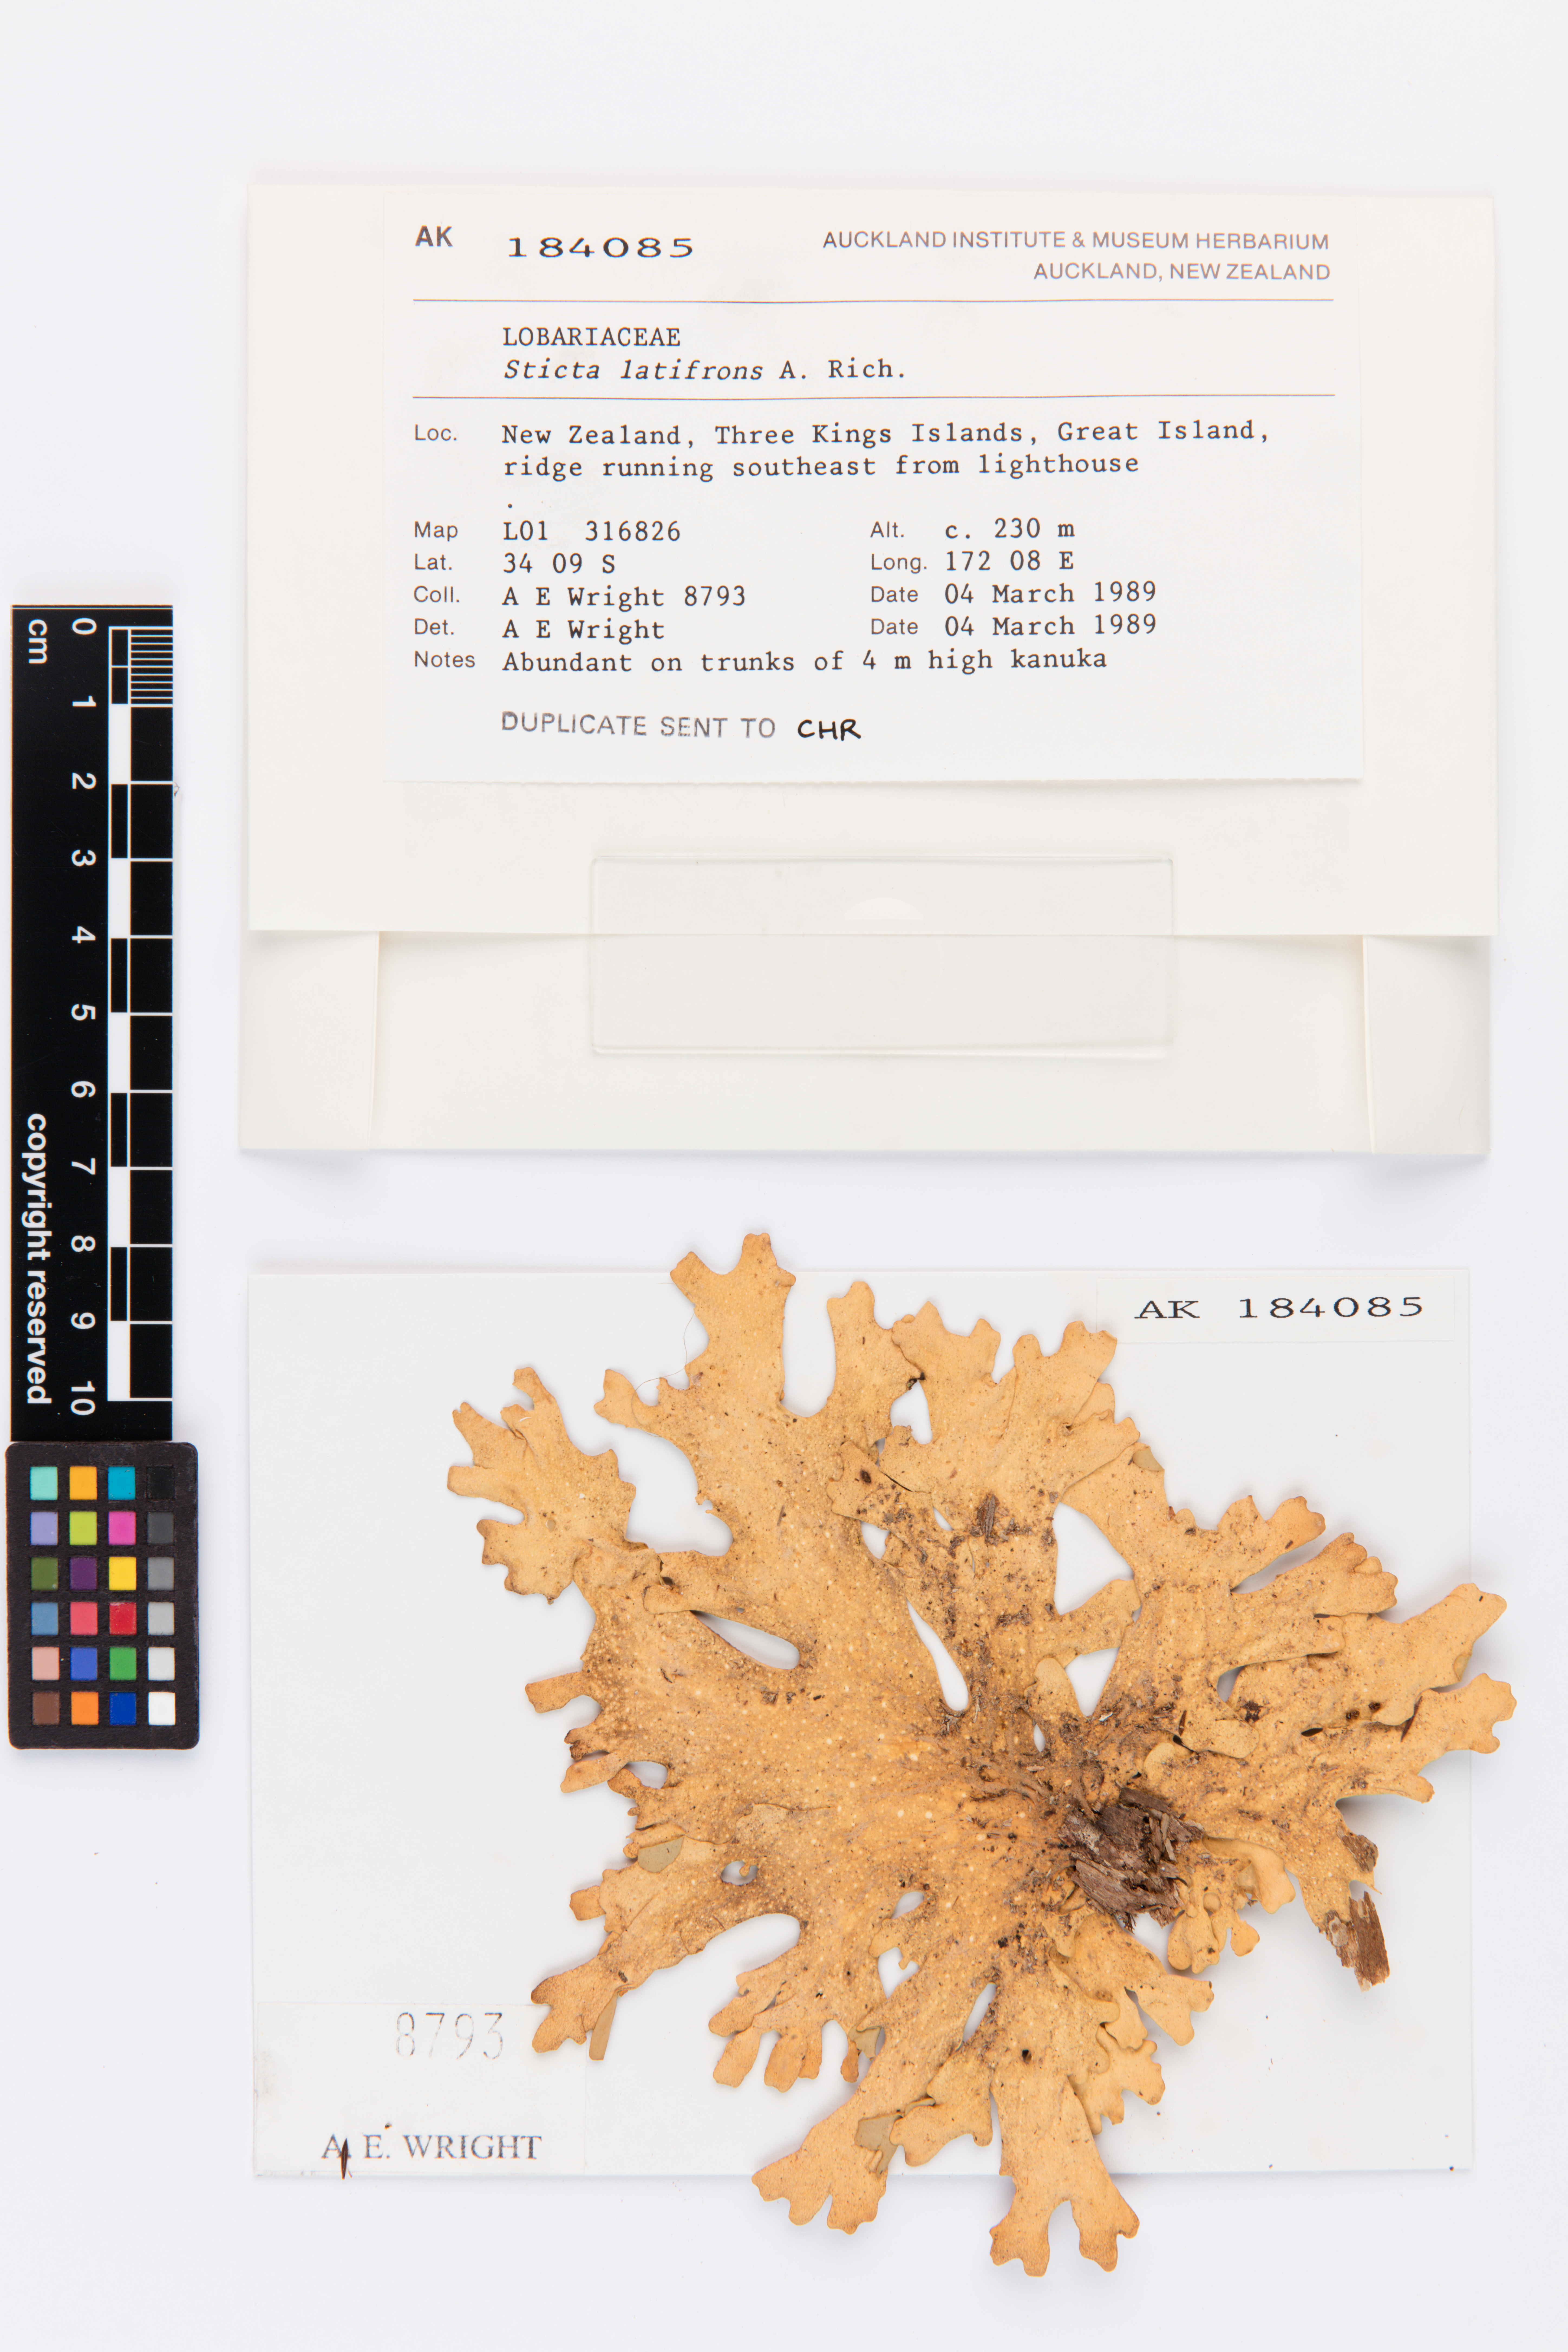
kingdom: Fungi
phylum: Ascomycota
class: Lecanoromycetes
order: Peltigerales
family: Lobariaceae
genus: Sticta
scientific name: Sticta latifrons
